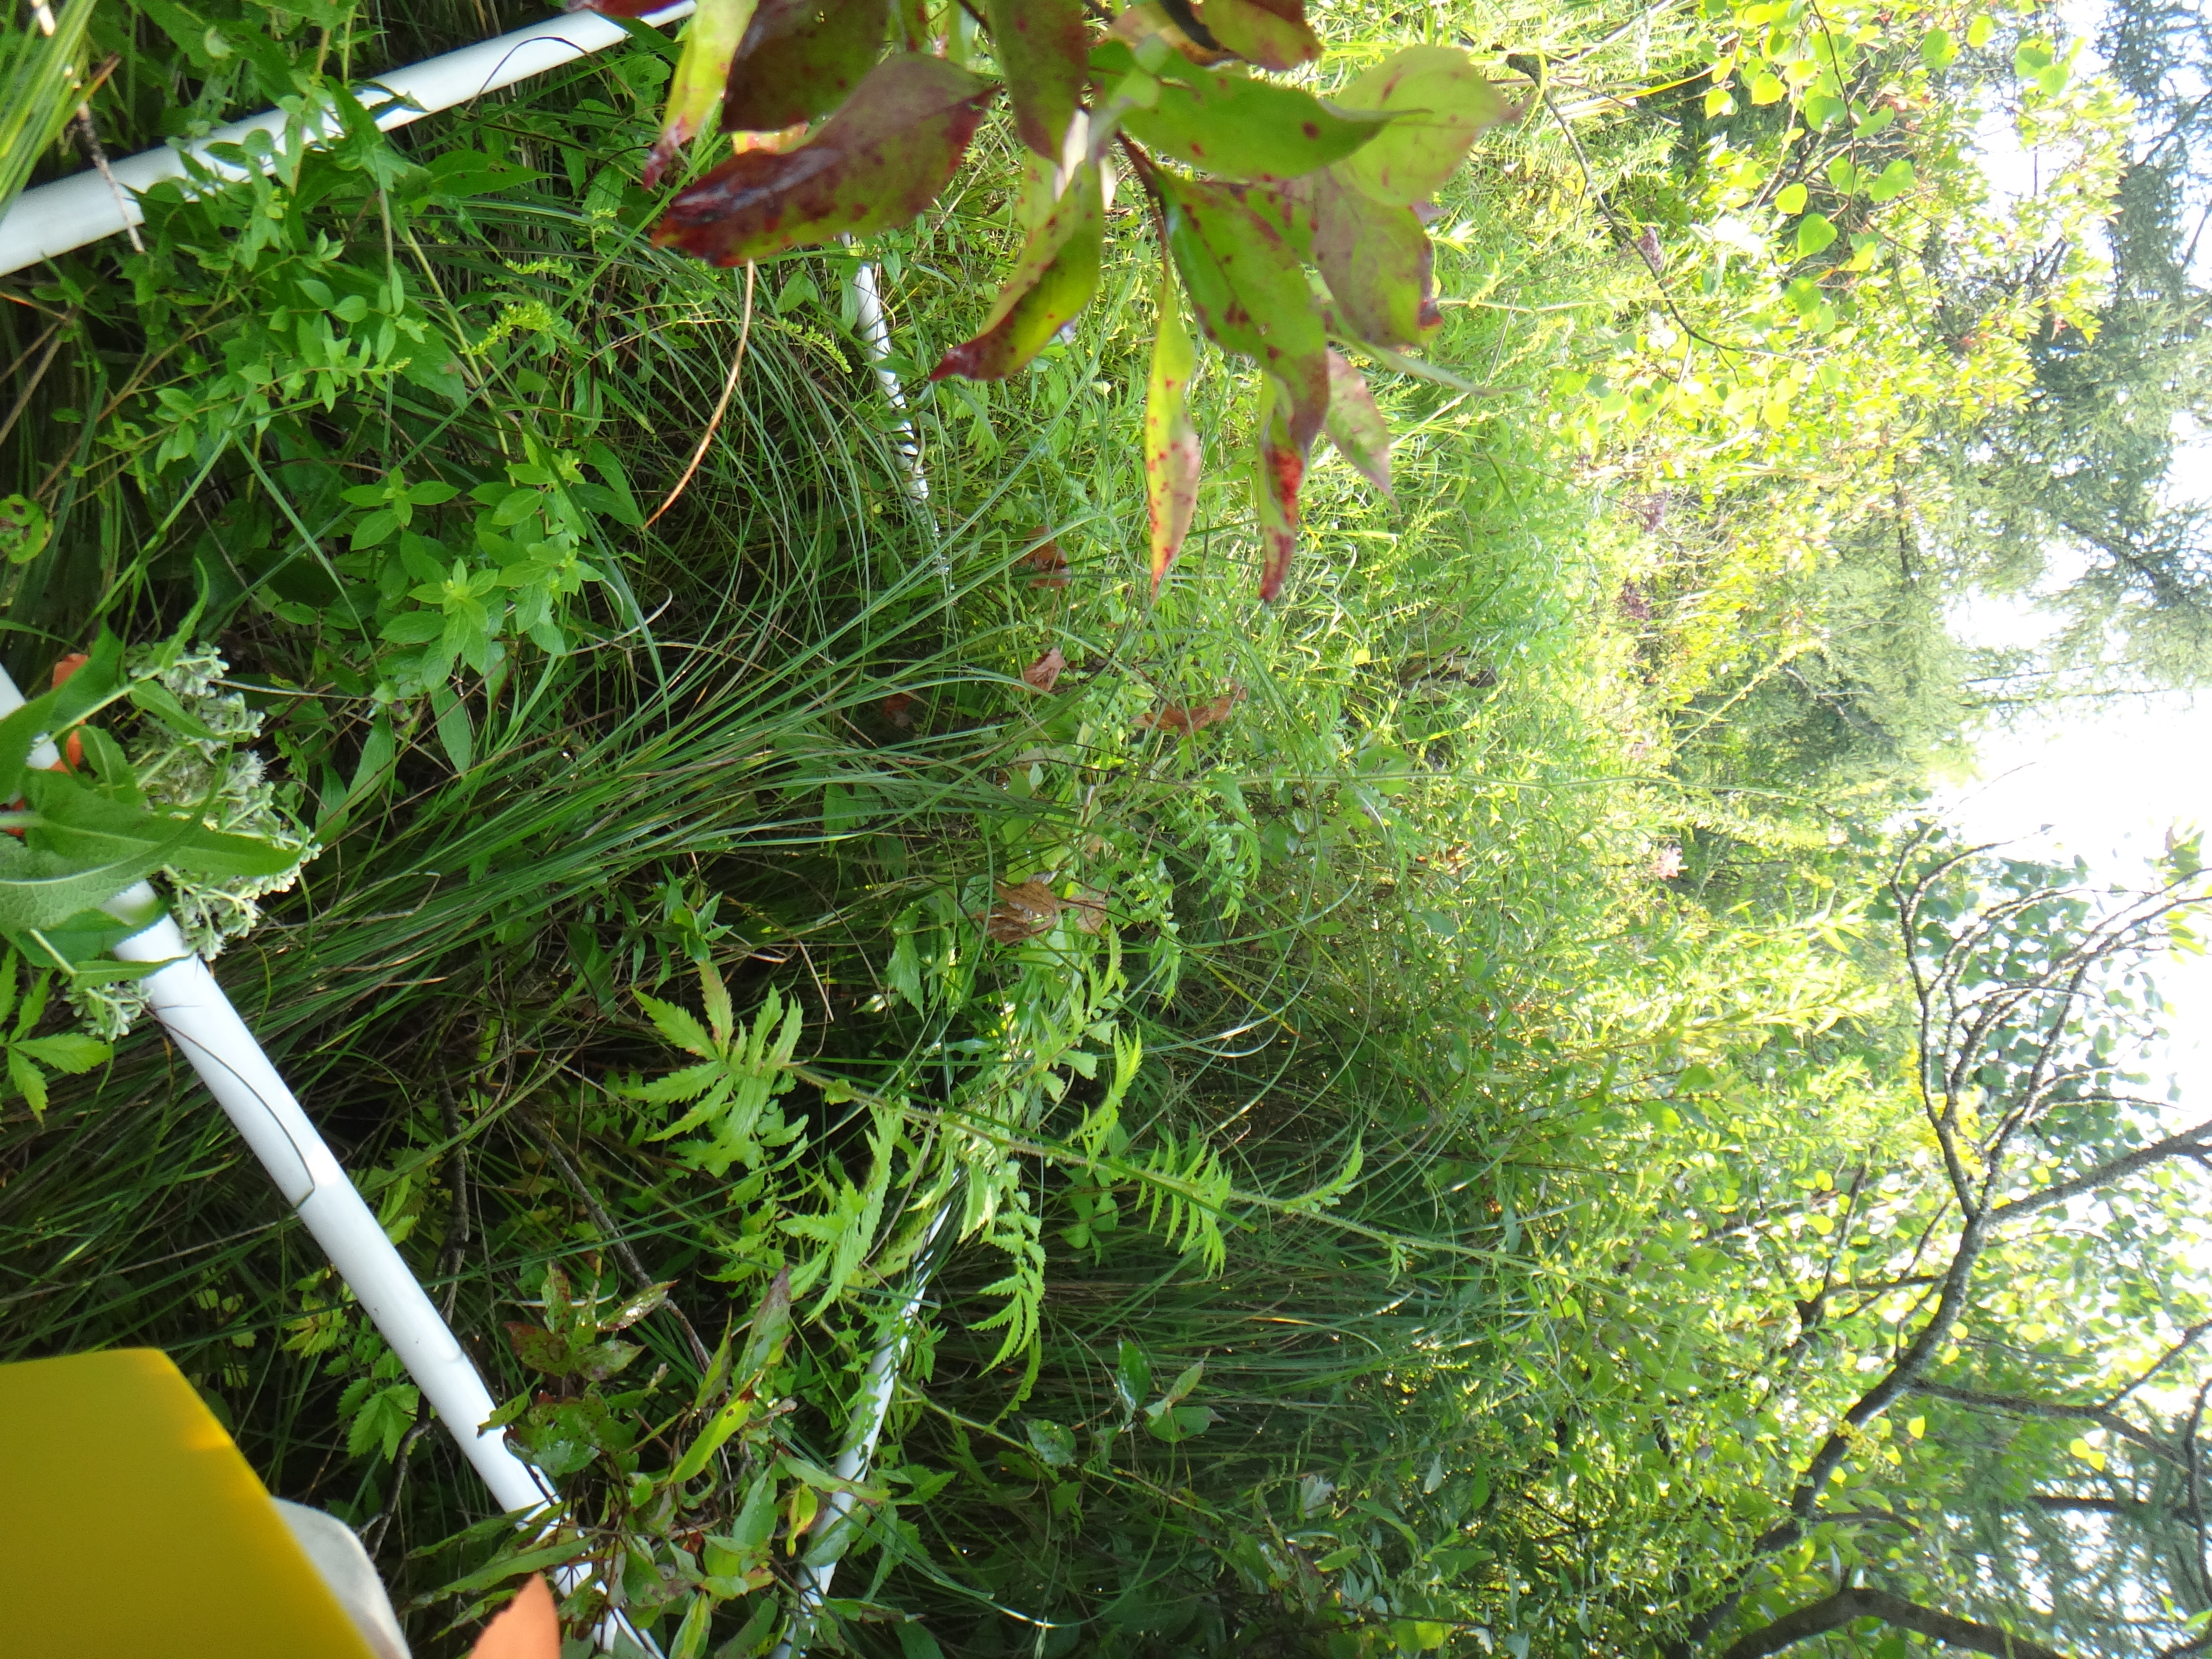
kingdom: Plantae
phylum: Tracheophyta
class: Magnoliopsida
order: Cornales
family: Cornaceae
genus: Cornus
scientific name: Cornus amomum
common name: Silky dogwood
